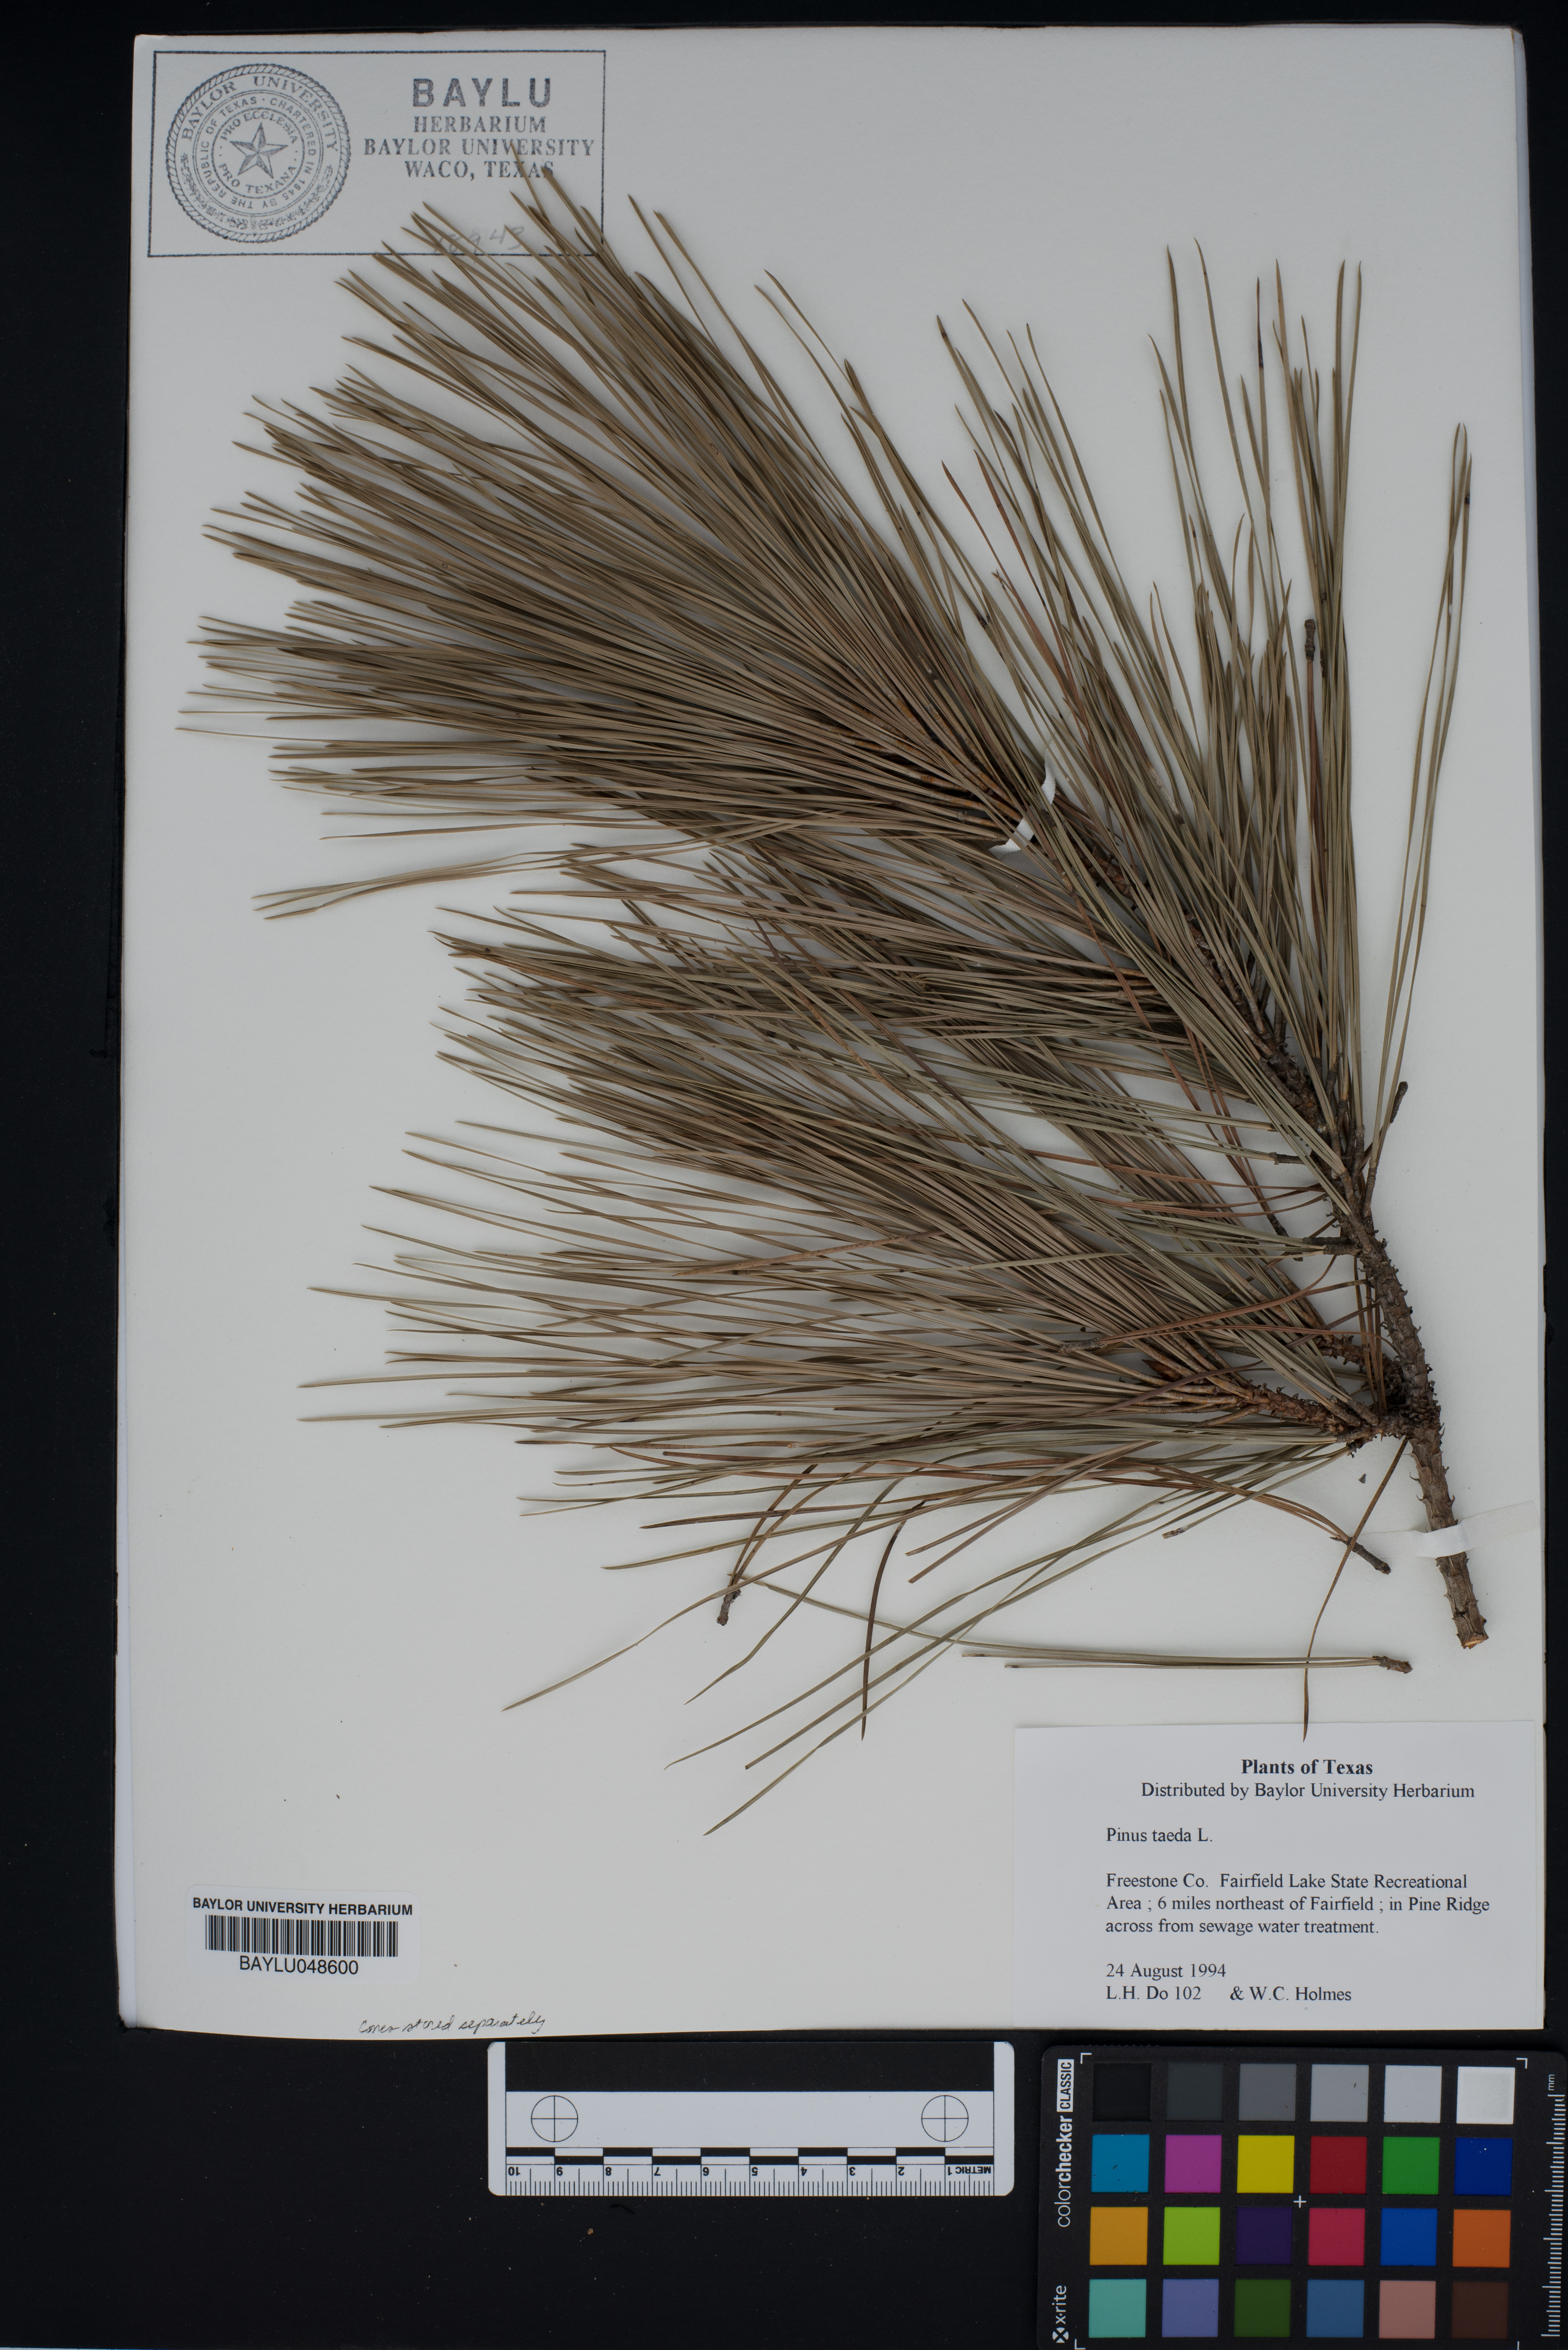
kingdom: Plantae
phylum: Tracheophyta
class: Pinopsida
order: Pinales
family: Pinaceae
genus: Pinus
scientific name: Pinus taeda
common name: Loblolly pine
